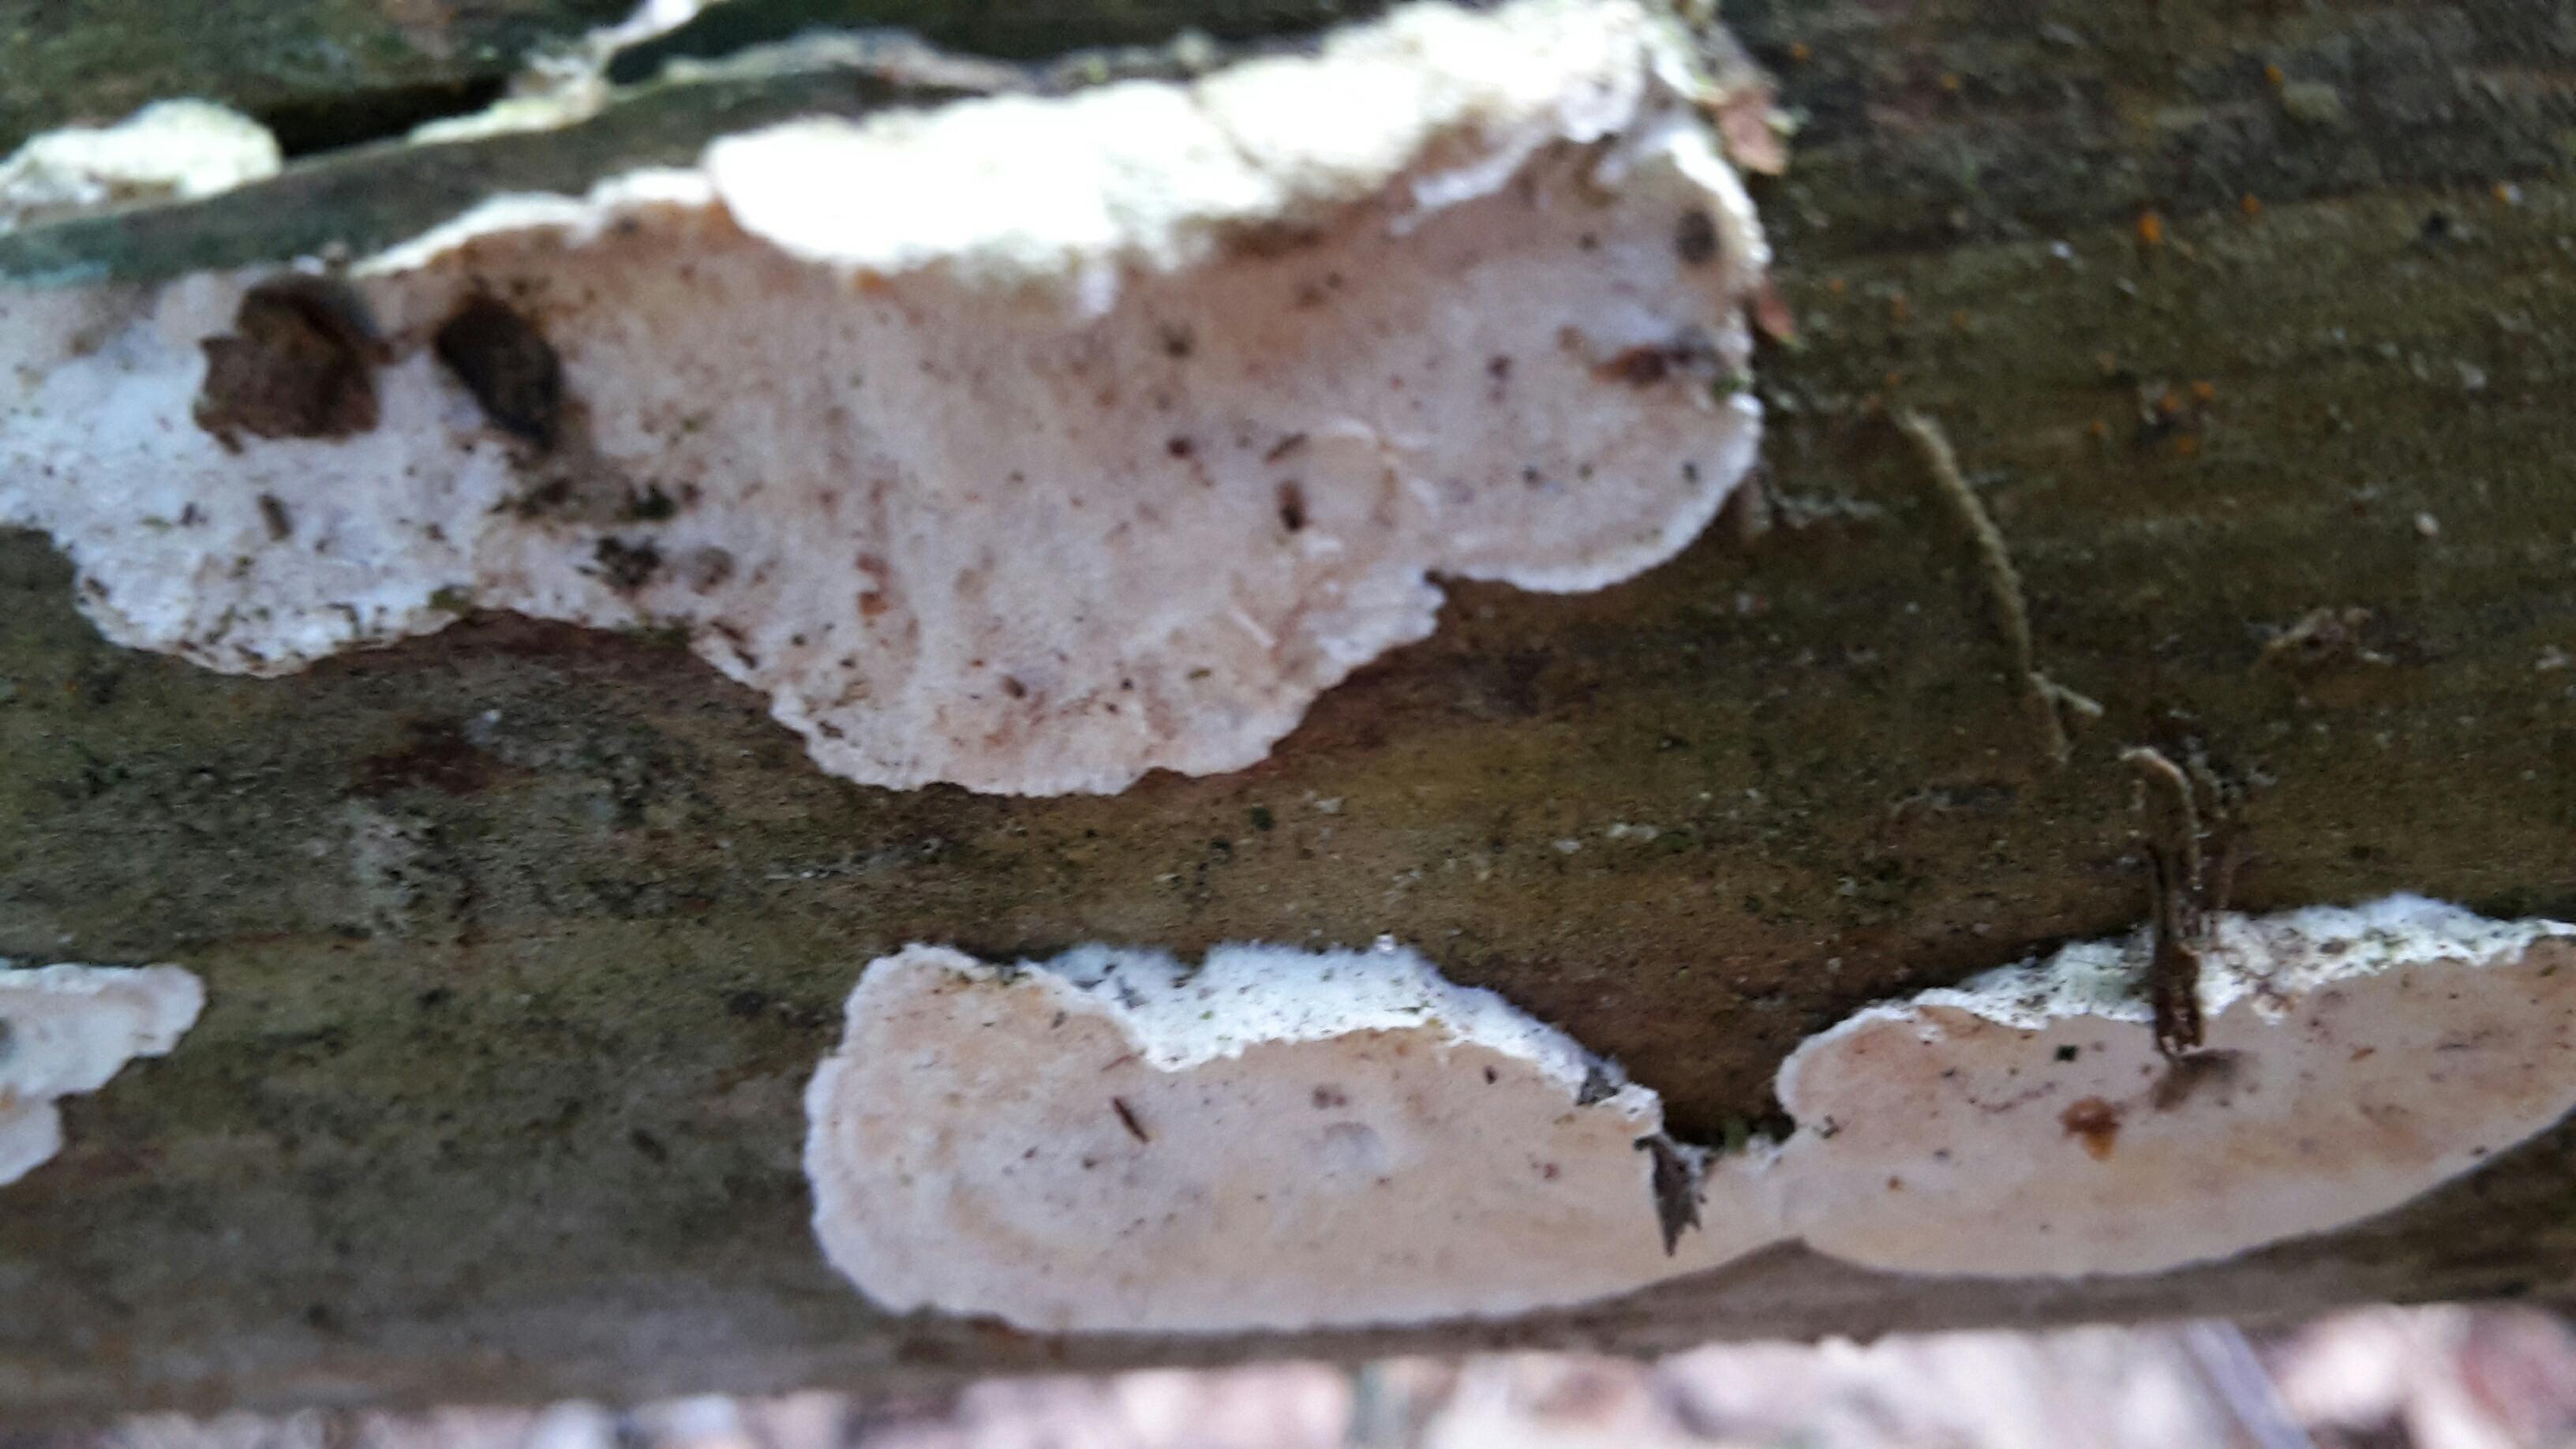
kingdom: Fungi
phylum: Basidiomycota
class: Agaricomycetes
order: Polyporales
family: Incrustoporiaceae
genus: Skeletocutis
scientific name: Skeletocutis amorpha
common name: orange krystalporesvamp
